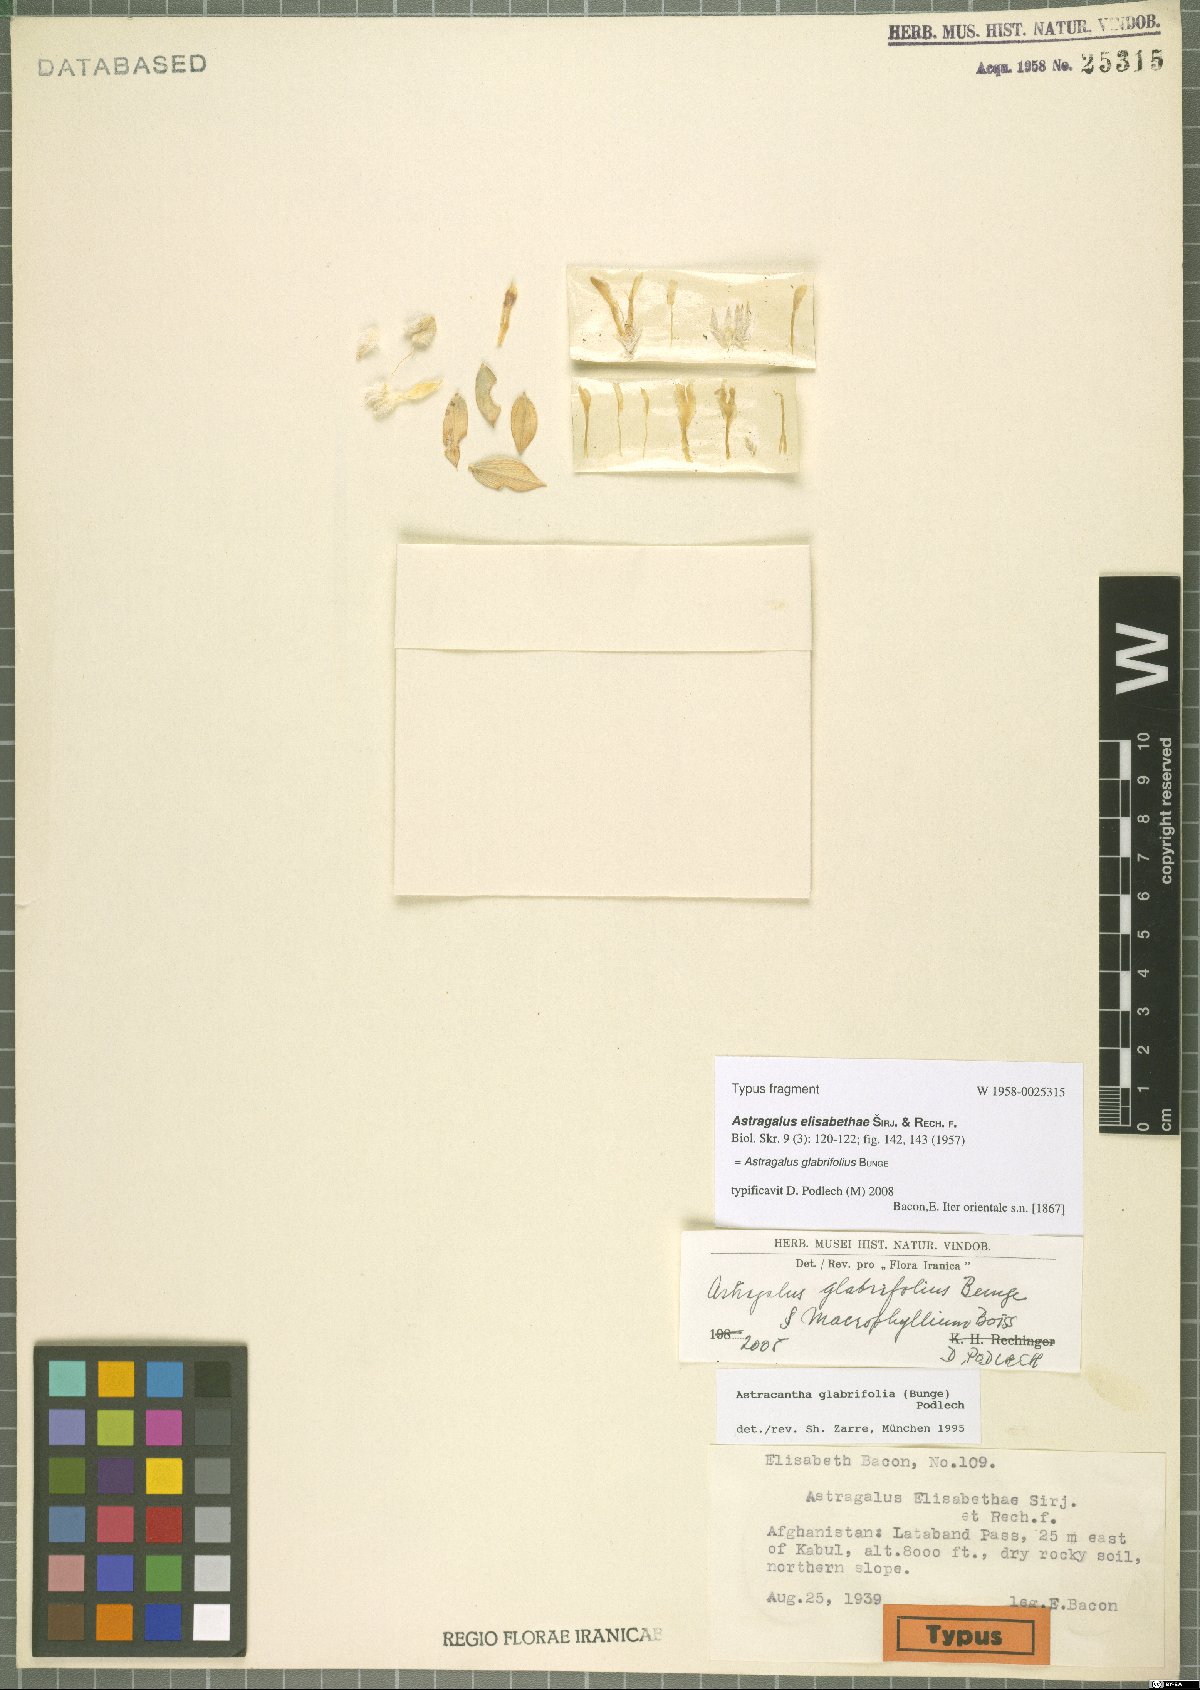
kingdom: Plantae
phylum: Tracheophyta
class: Magnoliopsida
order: Fabales
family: Fabaceae
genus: Astragalus
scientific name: Astragalus glabrifolius
